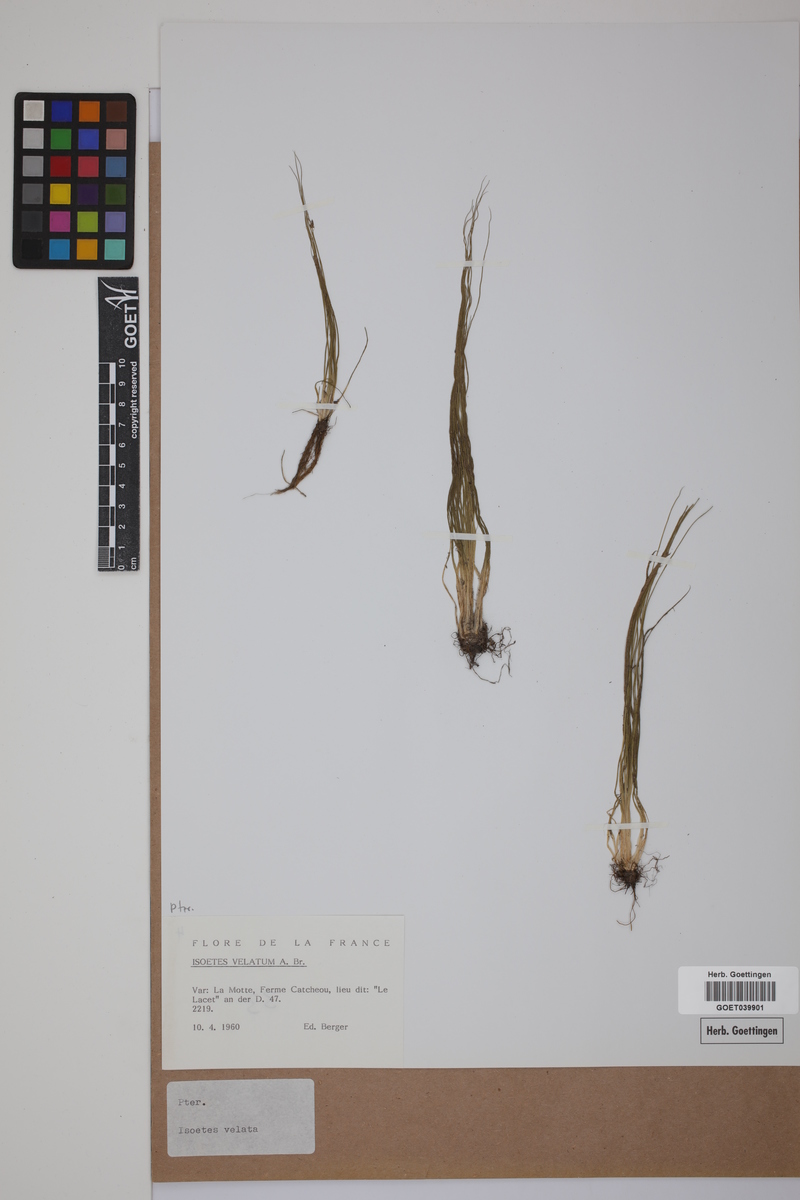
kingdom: Plantae
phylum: Tracheophyta
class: Lycopodiopsida
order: Isoetales
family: Isoetaceae
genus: Isoetes
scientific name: Isoetes longissima
